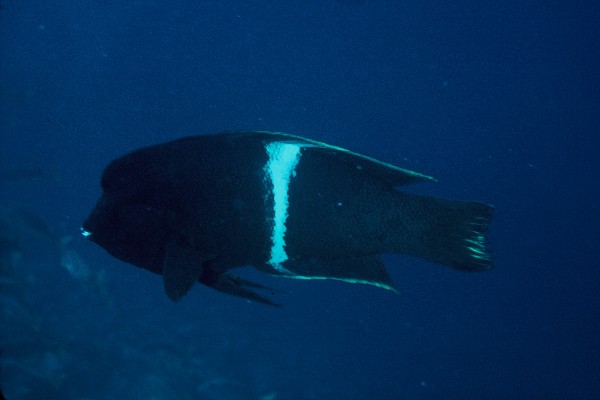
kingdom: Animalia
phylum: Chordata
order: Perciformes
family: Labridae
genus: Coris
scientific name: Coris aygula
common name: Clown coris
